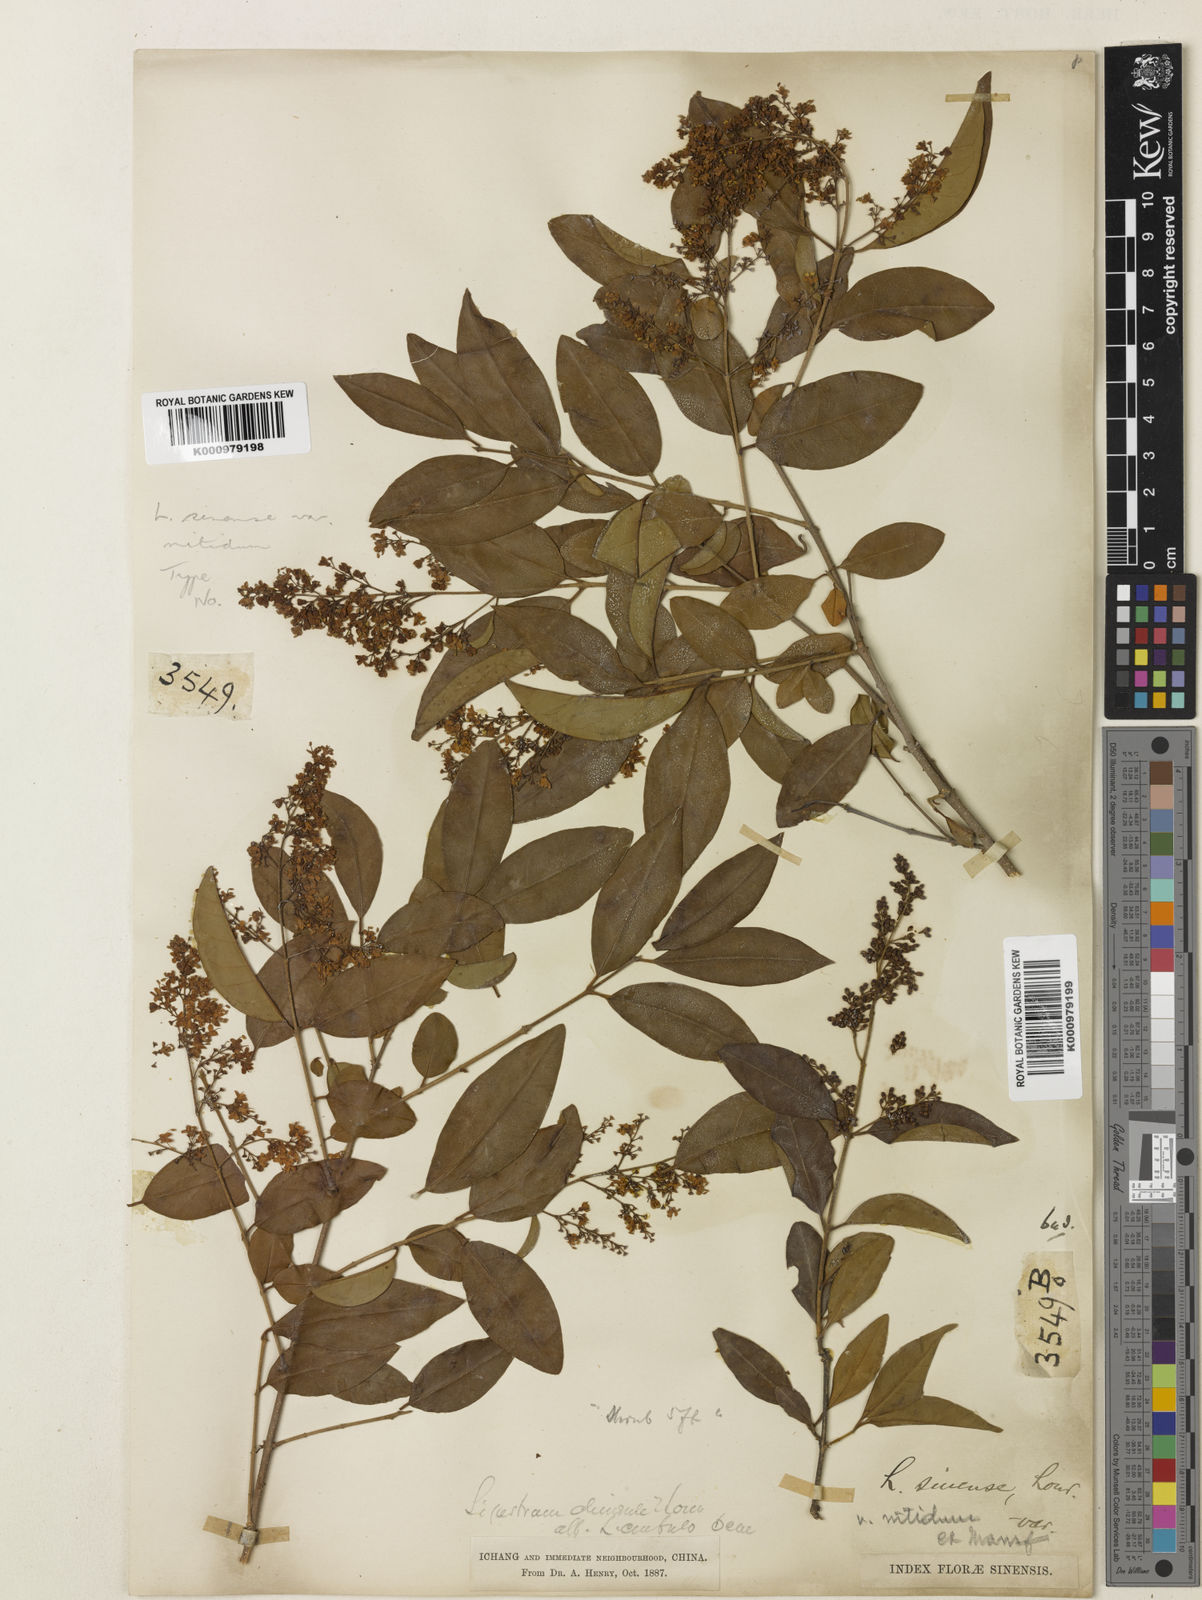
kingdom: Plantae
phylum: Tracheophyta
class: Magnoliopsida
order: Lamiales
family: Oleaceae
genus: Ligustrum
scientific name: Ligustrum sinense
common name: Chinese privet
